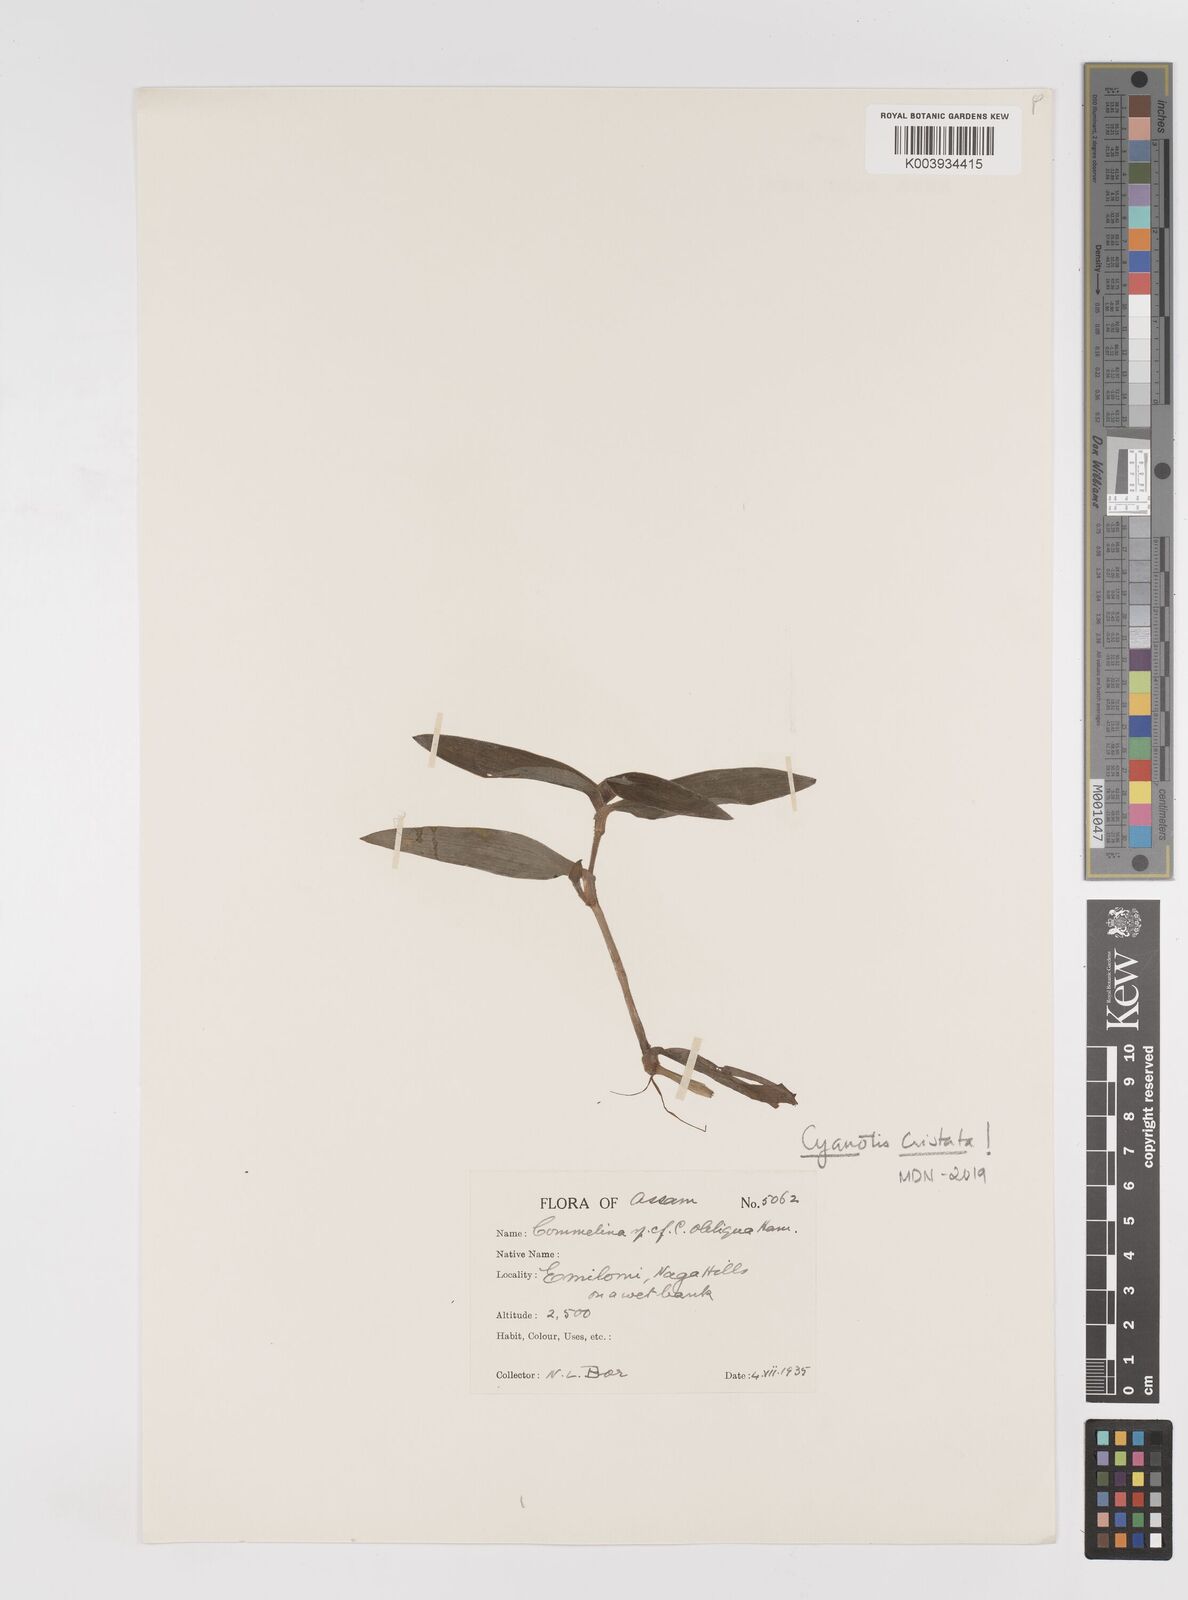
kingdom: Plantae
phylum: Tracheophyta
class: Liliopsida
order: Commelinales
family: Commelinaceae
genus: Cyanotis
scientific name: Cyanotis cristata
